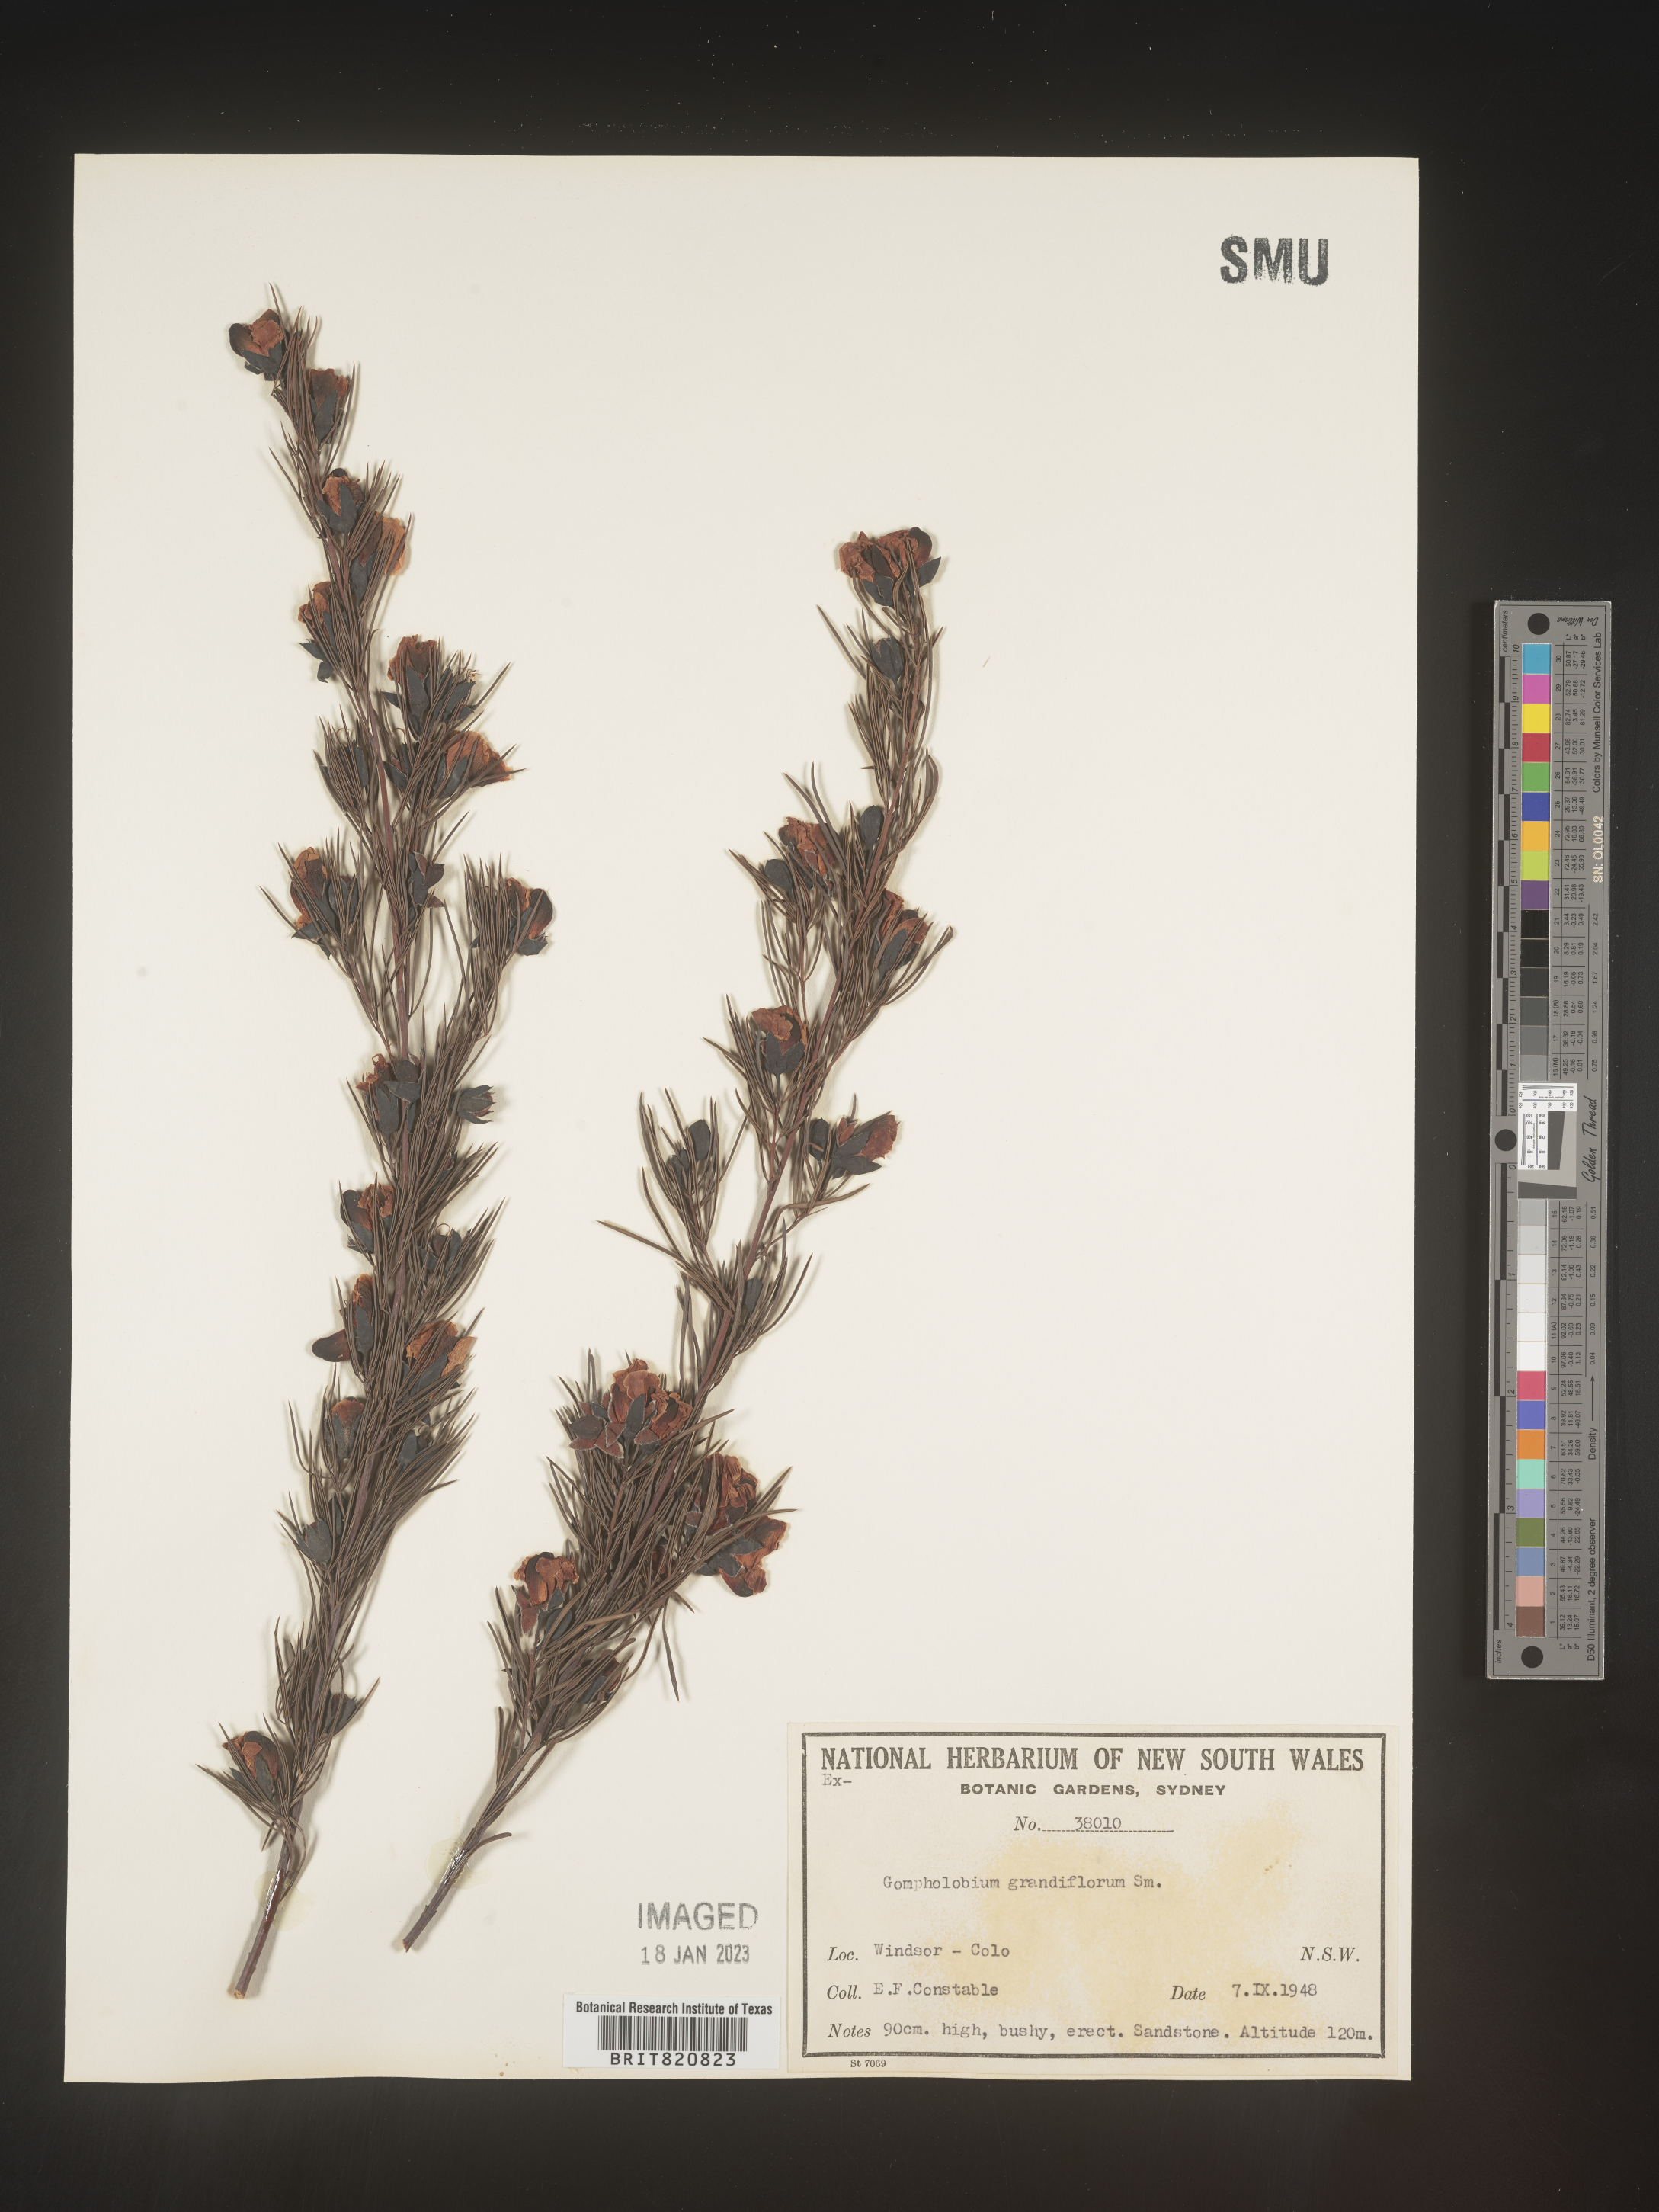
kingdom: Plantae
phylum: Tracheophyta
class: Magnoliopsida
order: Fabales
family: Fabaceae
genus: Gompholobium
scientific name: Gompholobium
